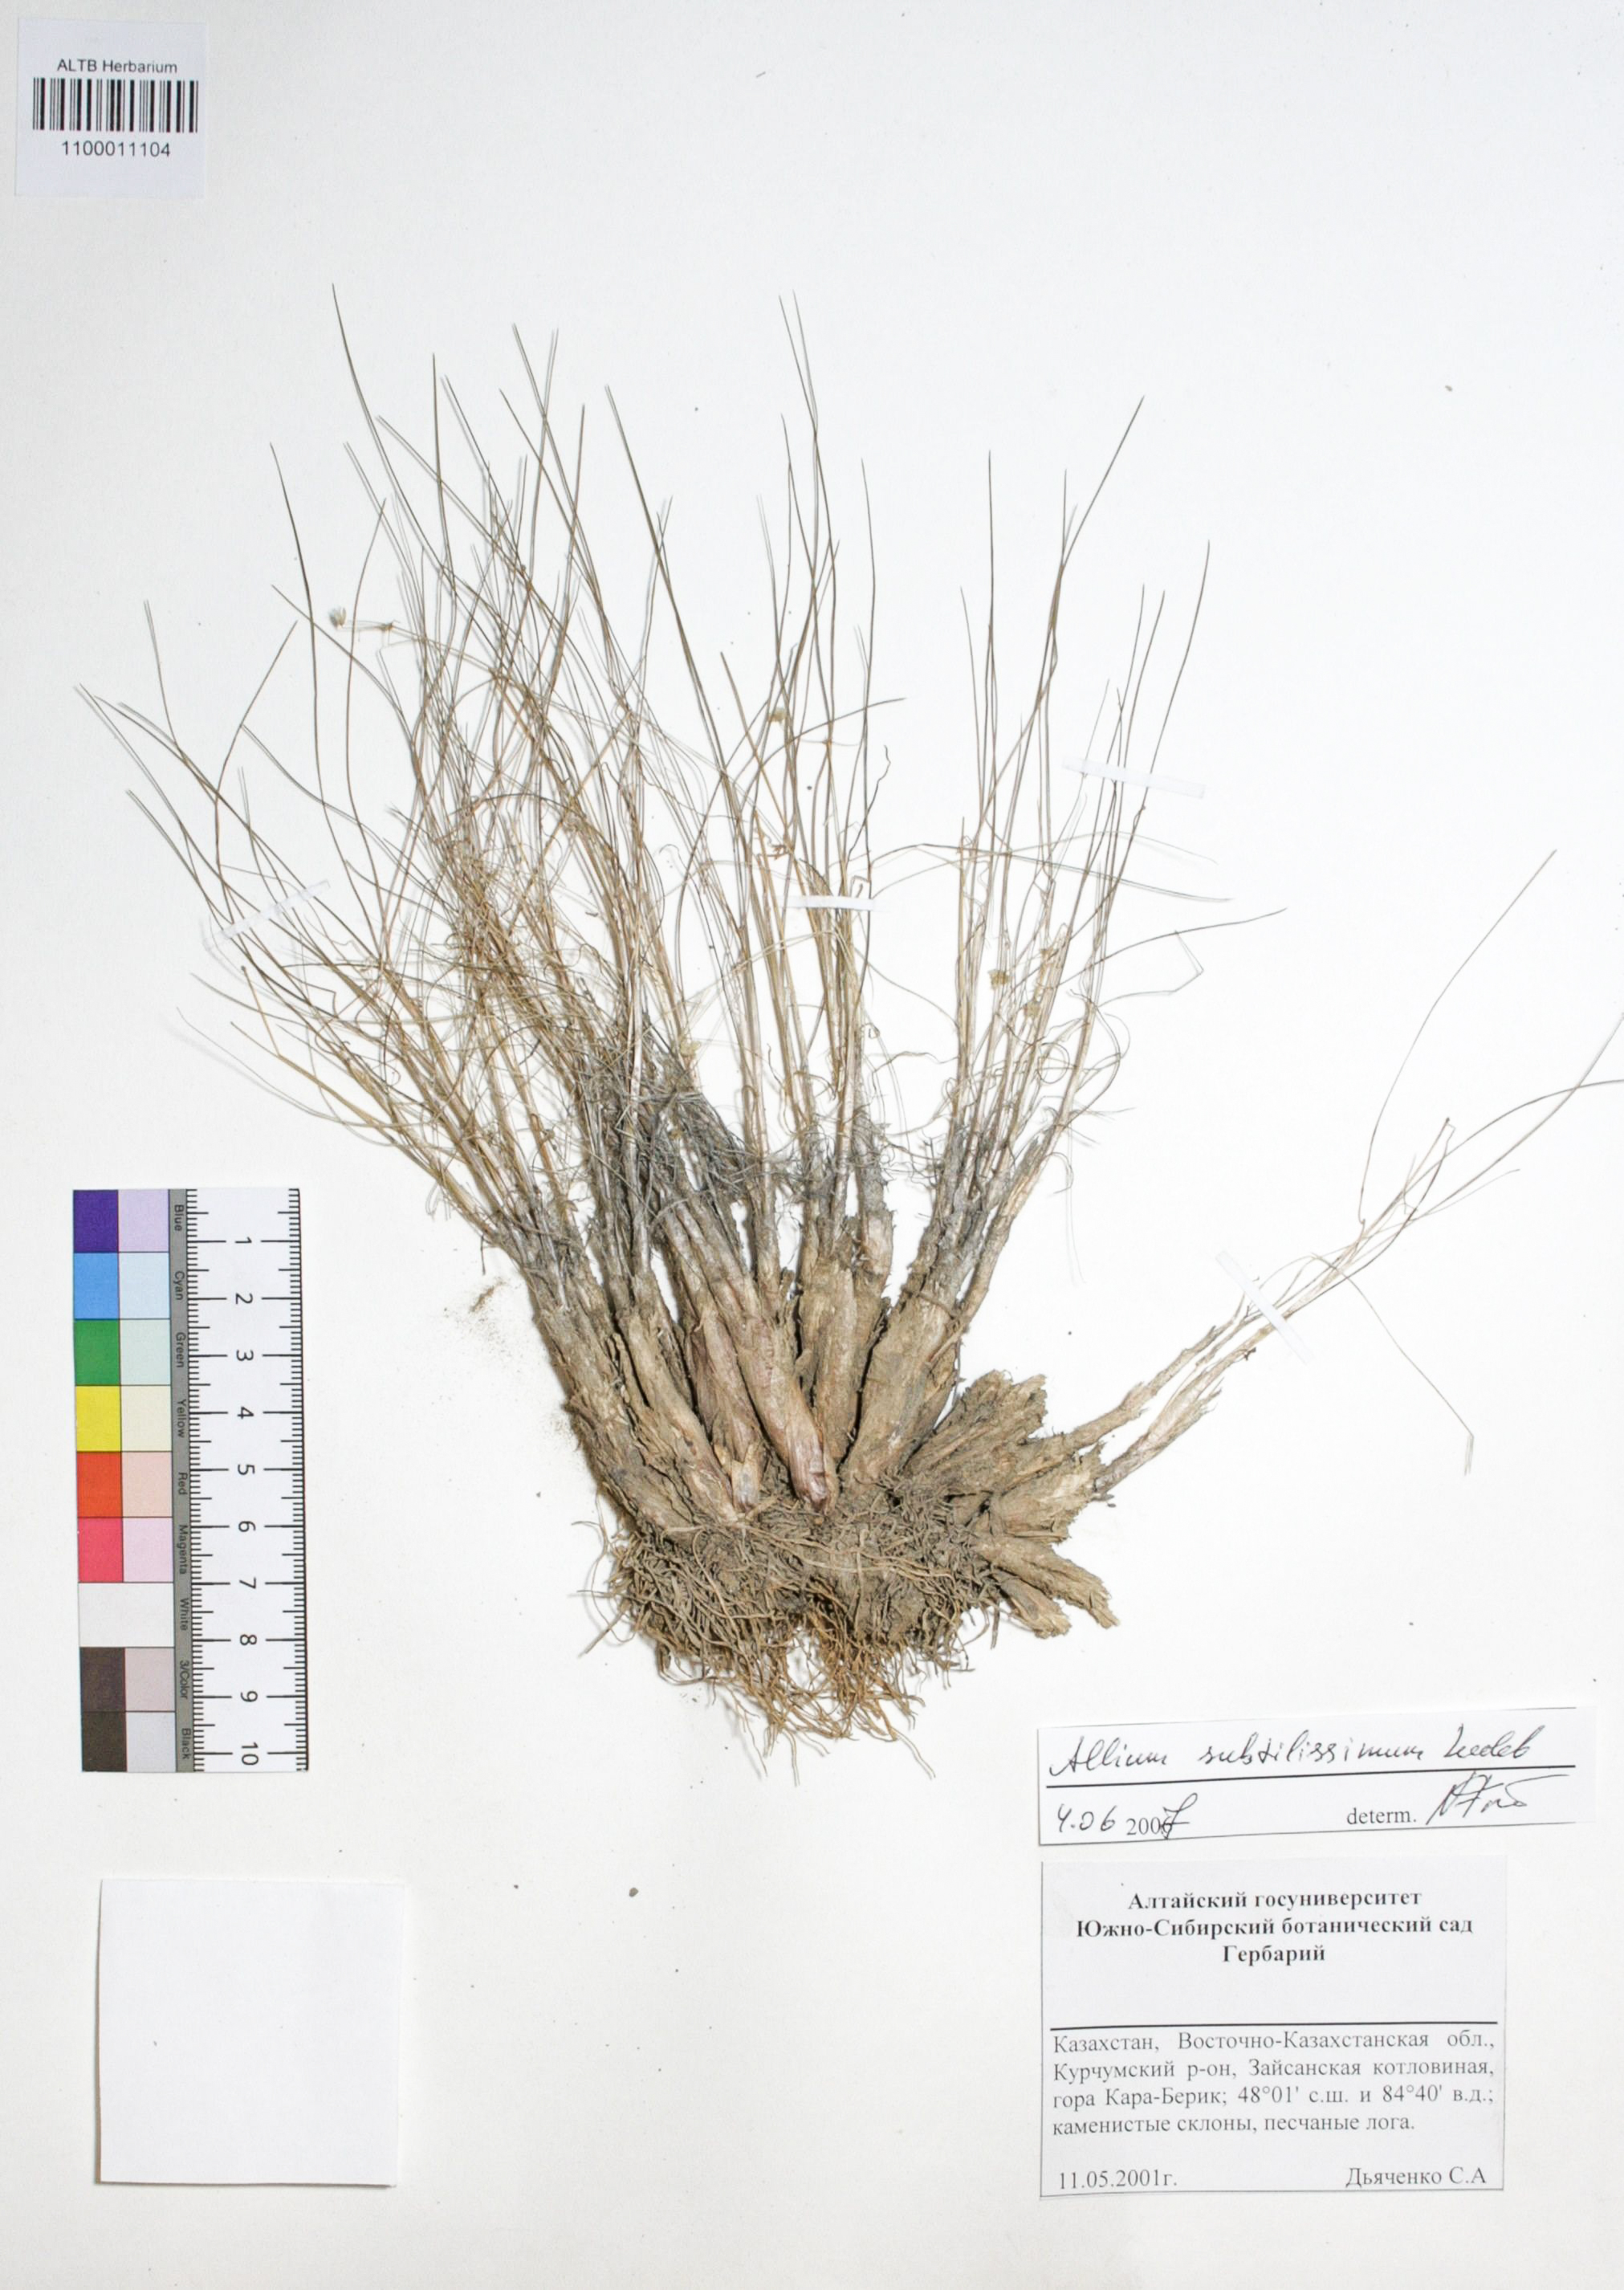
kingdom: Plantae
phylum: Tracheophyta
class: Liliopsida
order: Asparagales
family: Amaryllidaceae
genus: Allium
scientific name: Allium subtilissimum
